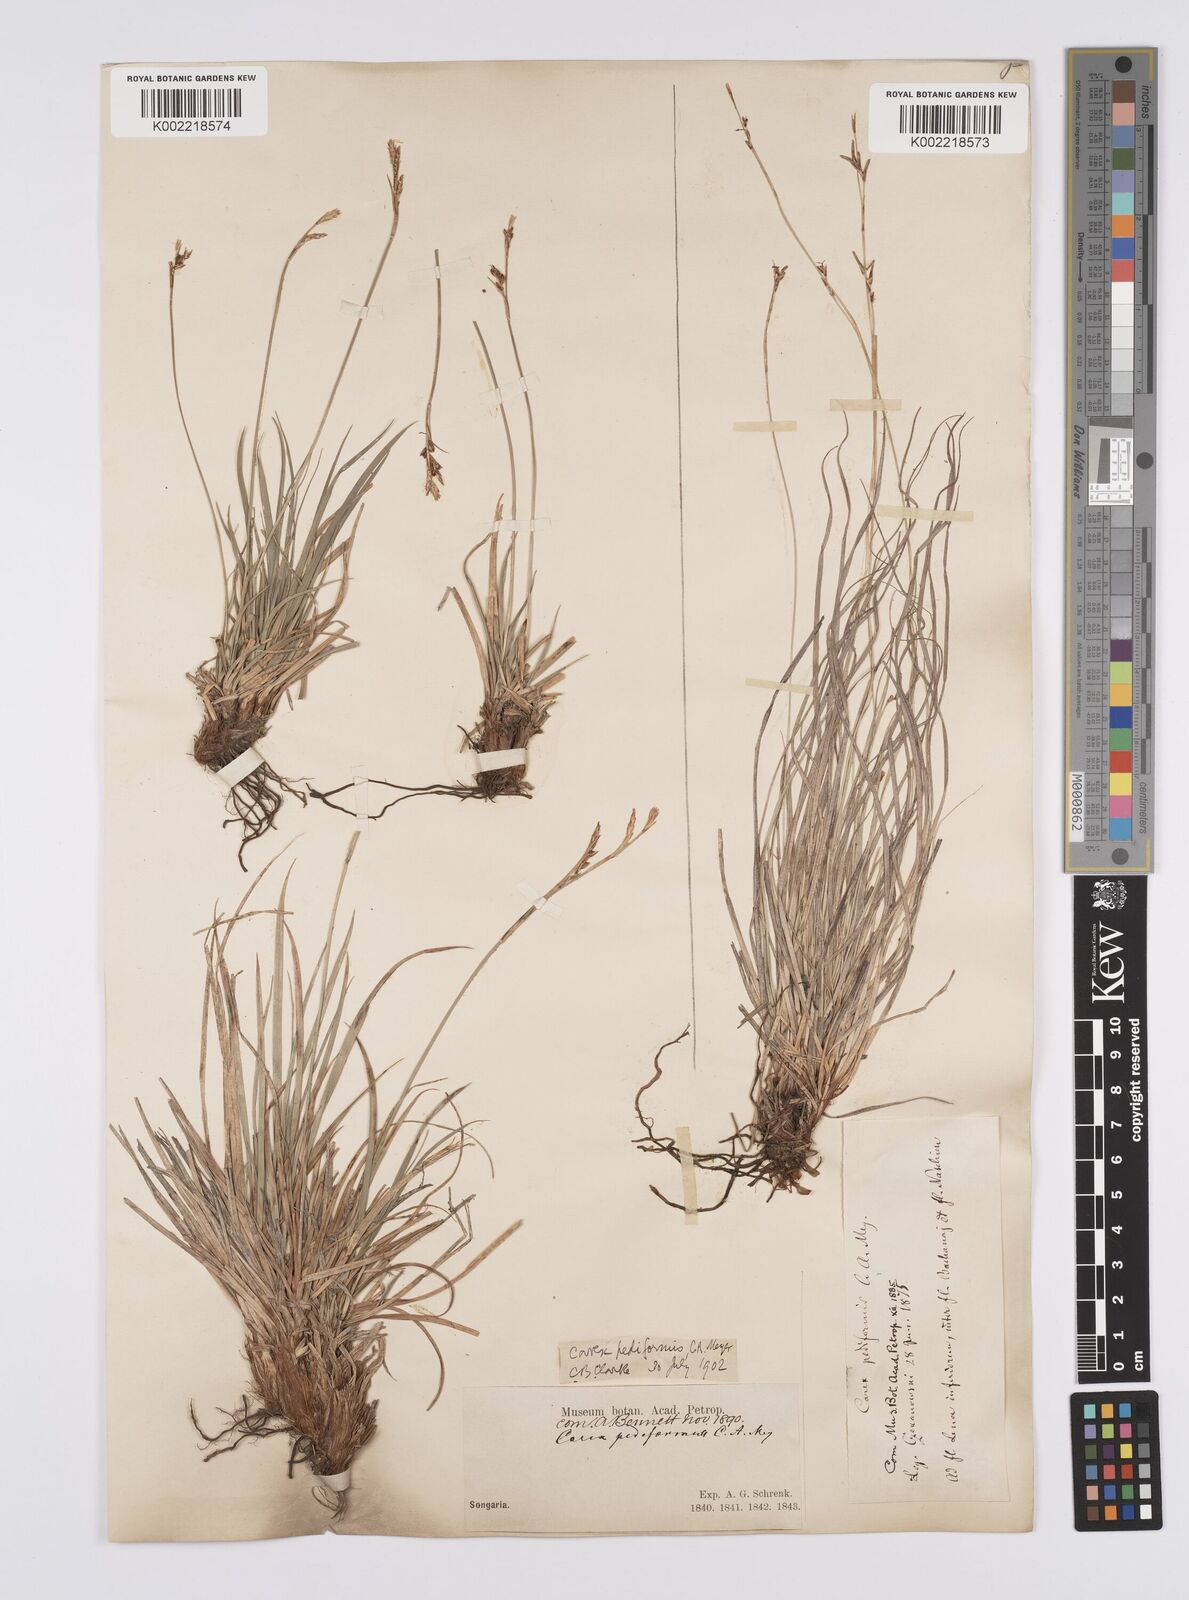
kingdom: Plantae
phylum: Tracheophyta
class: Liliopsida
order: Poales
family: Cyperaceae
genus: Carex
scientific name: Carex pediformis
